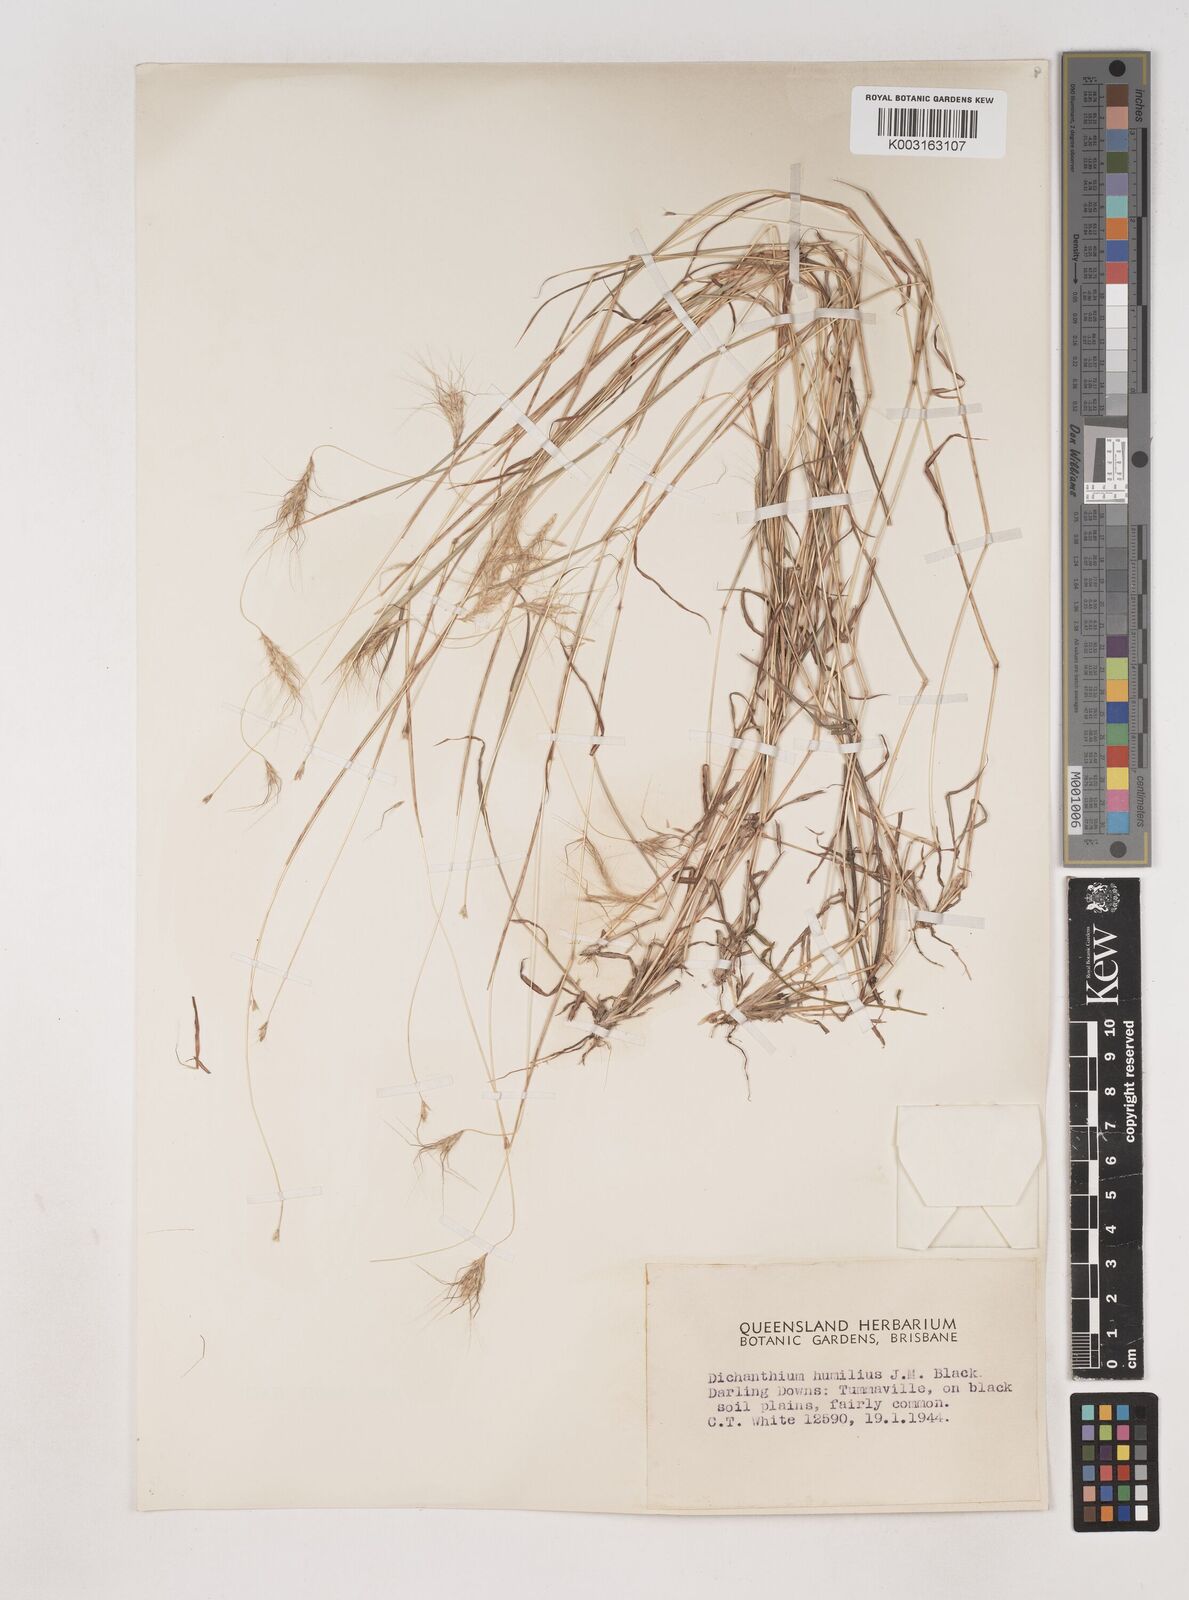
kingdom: Plantae
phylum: Tracheophyta
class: Liliopsida
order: Poales
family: Poaceae
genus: Dichanthium
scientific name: Dichanthium sericeum
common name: Silky bluestem
